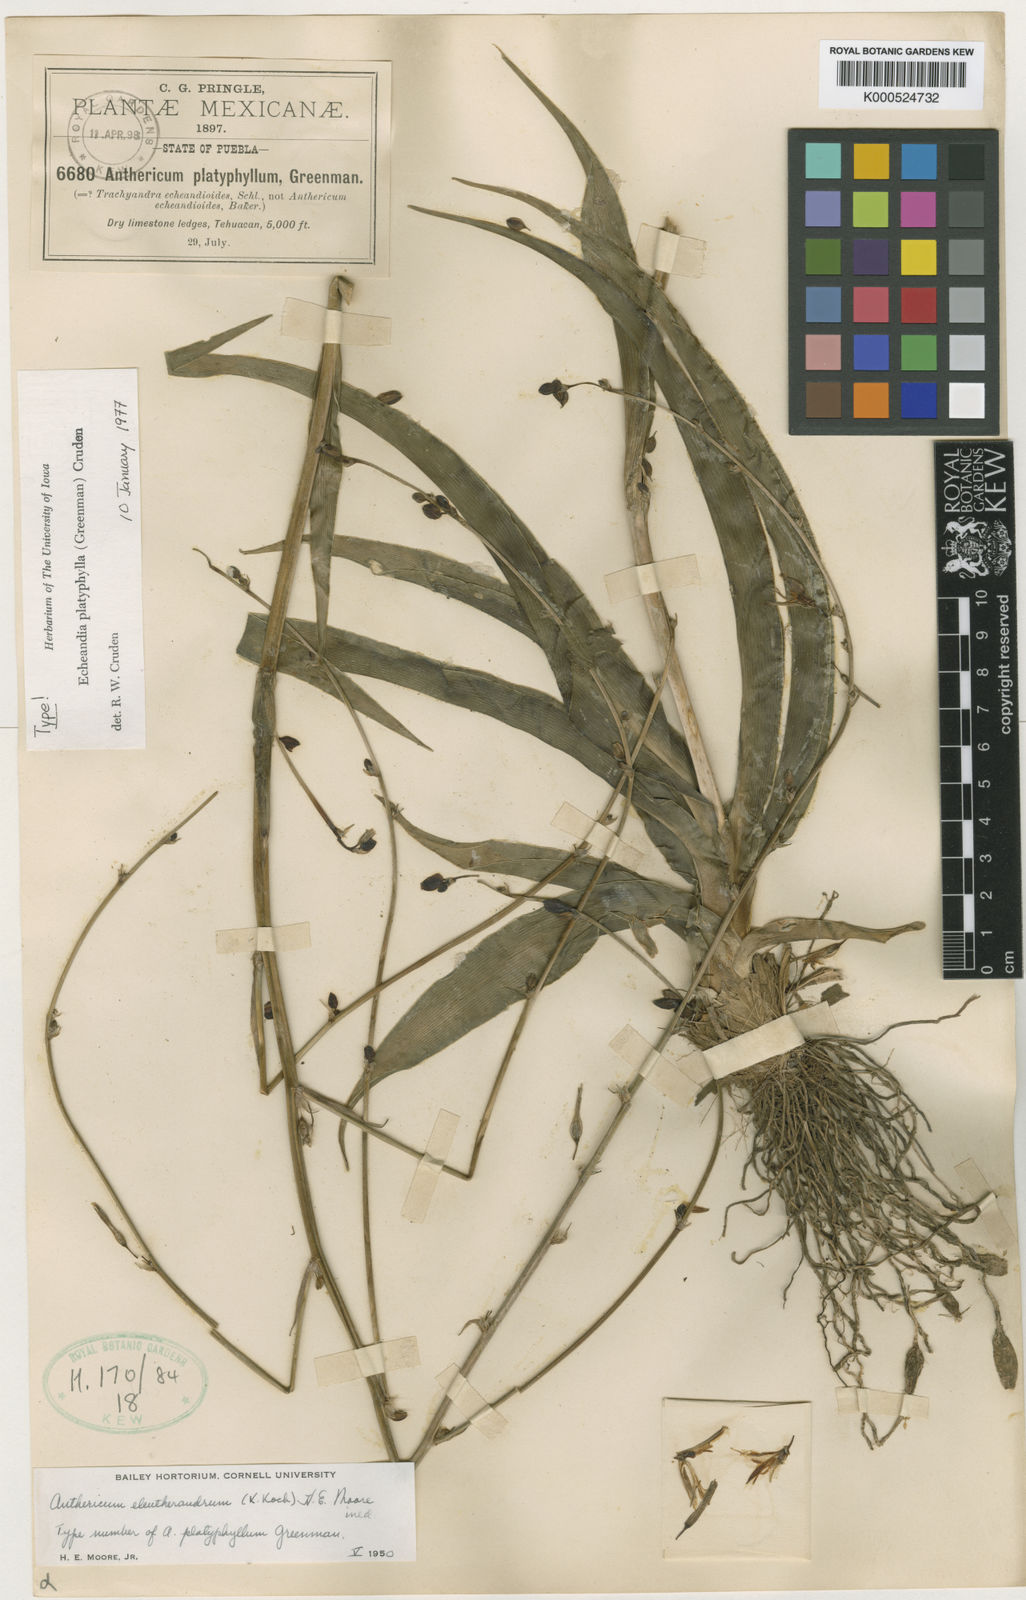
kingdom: Plantae
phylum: Tracheophyta
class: Liliopsida
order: Asparagales
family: Asparagaceae
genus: Echeandia
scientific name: Echeandia platyphylla
